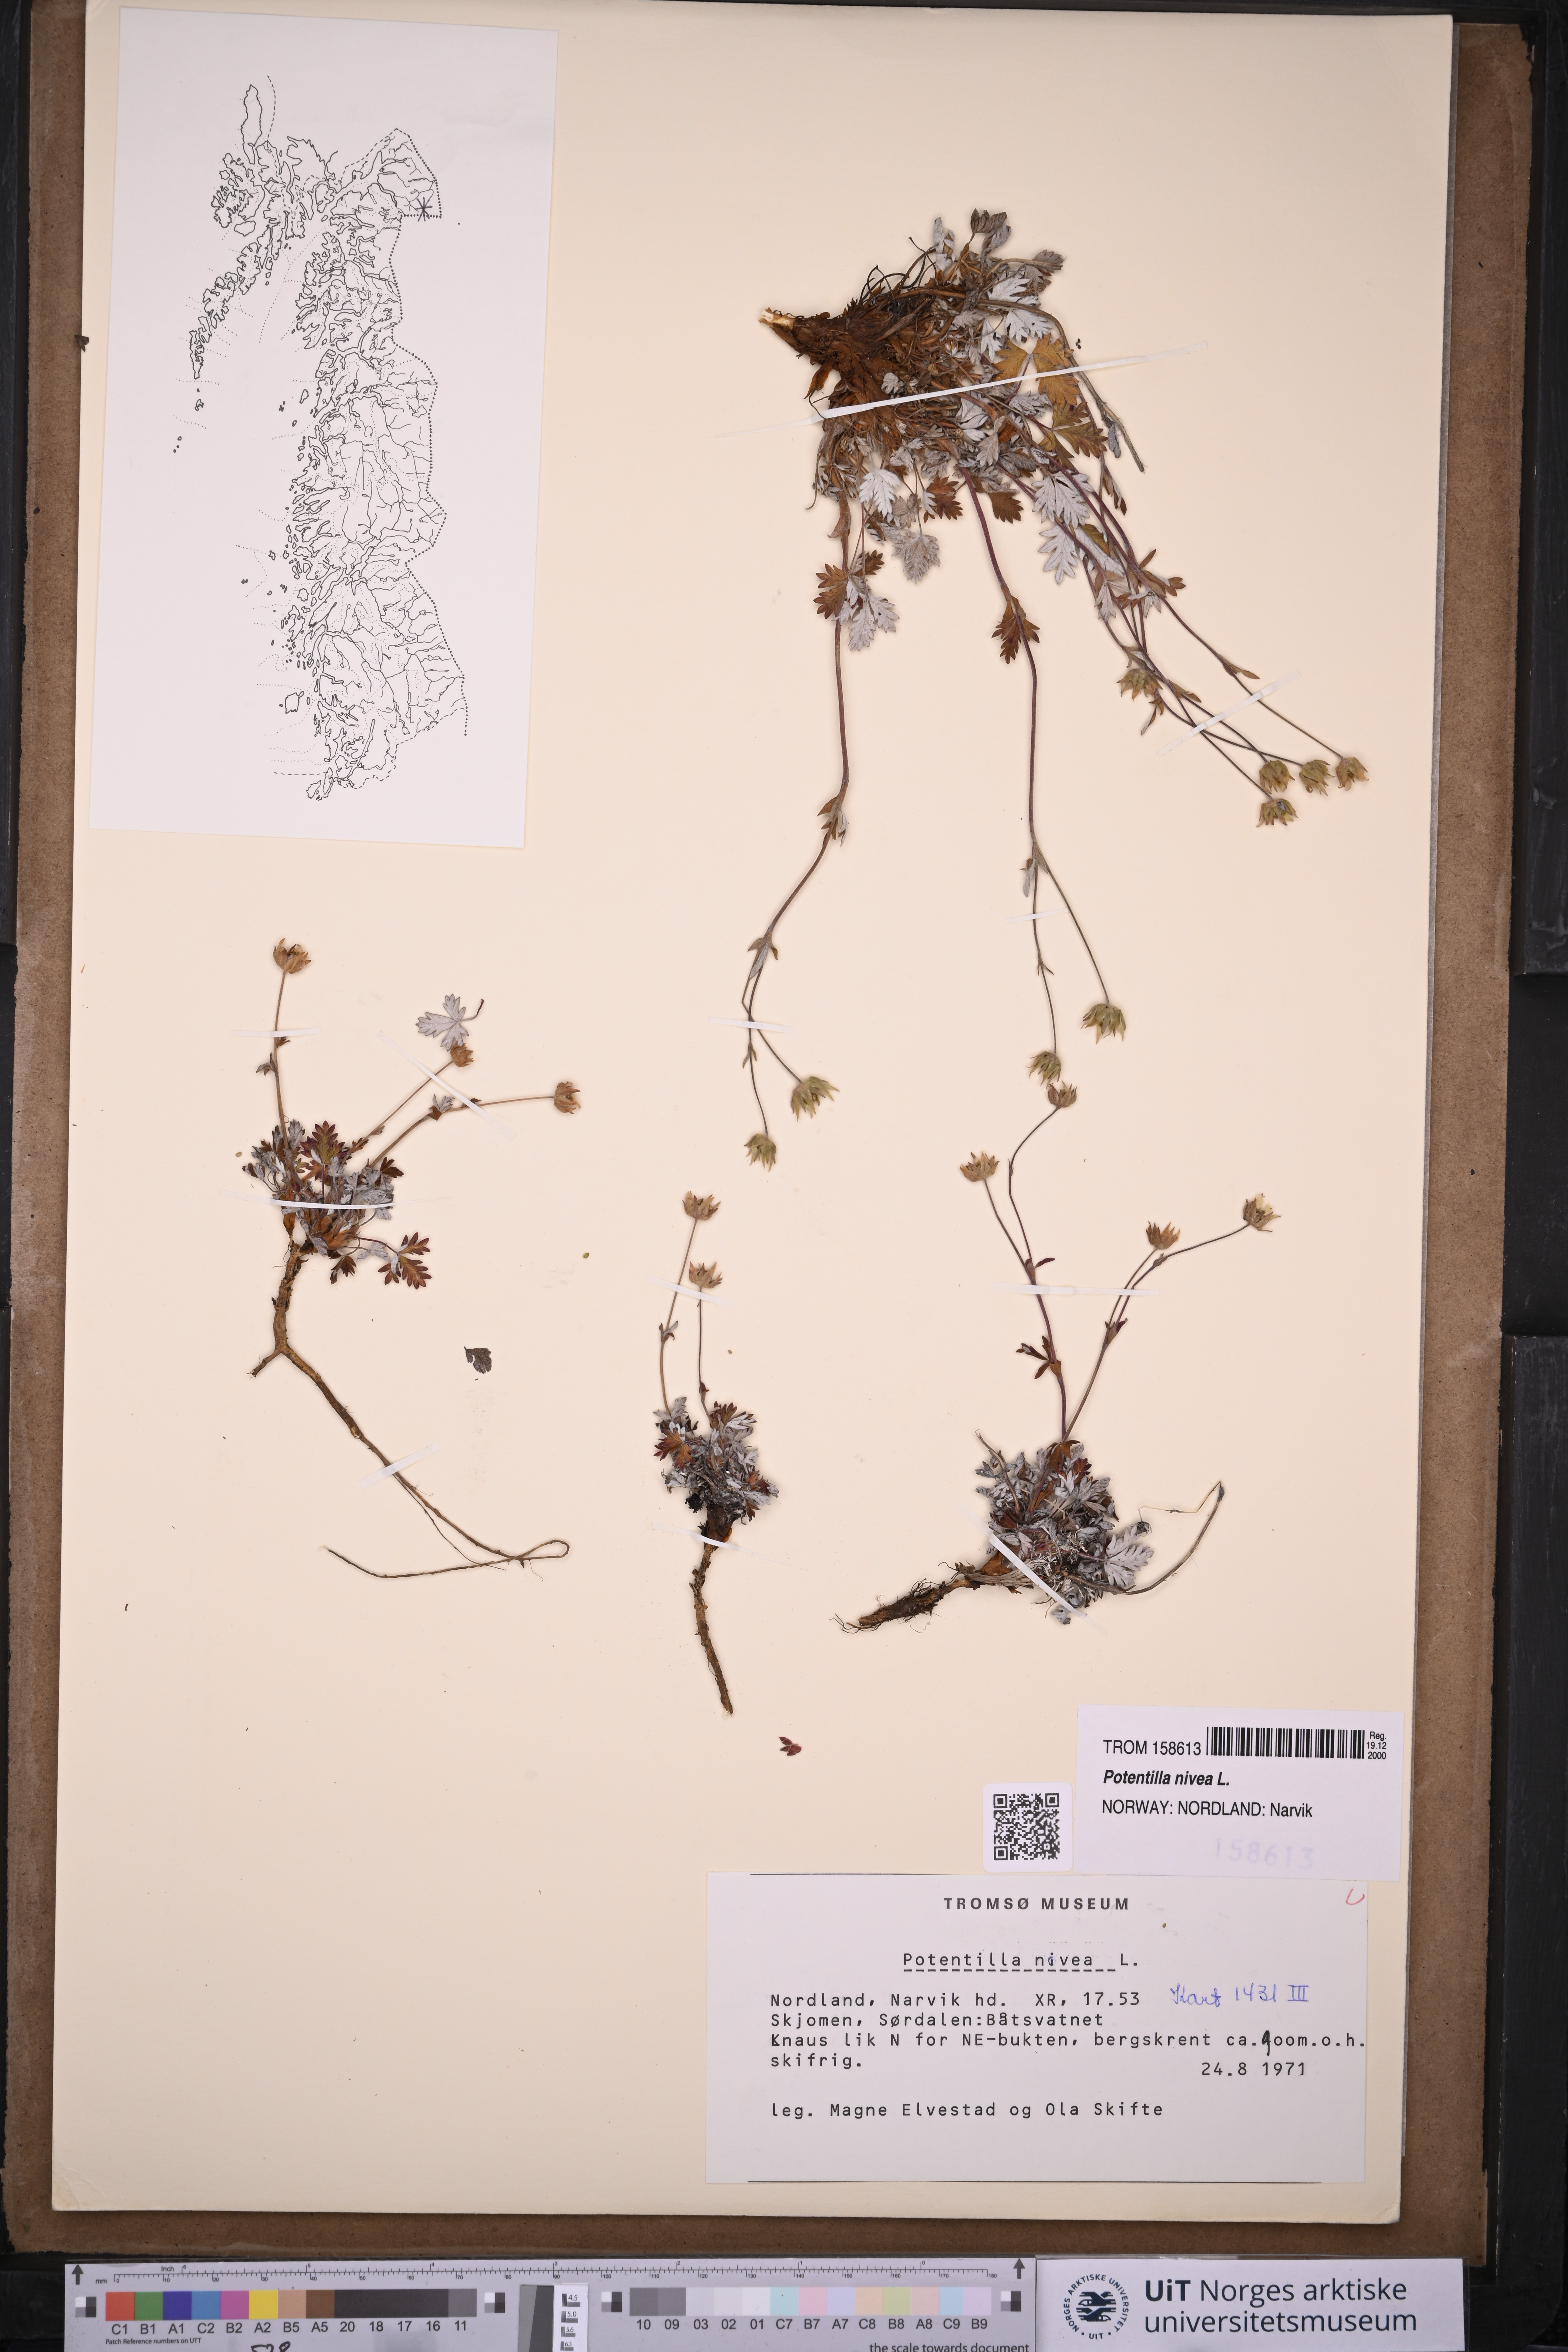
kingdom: Plantae
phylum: Tracheophyta
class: Magnoliopsida
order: Rosales
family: Rosaceae
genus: Potentilla
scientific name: Potentilla arenosa
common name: Bluff cinquefoil
